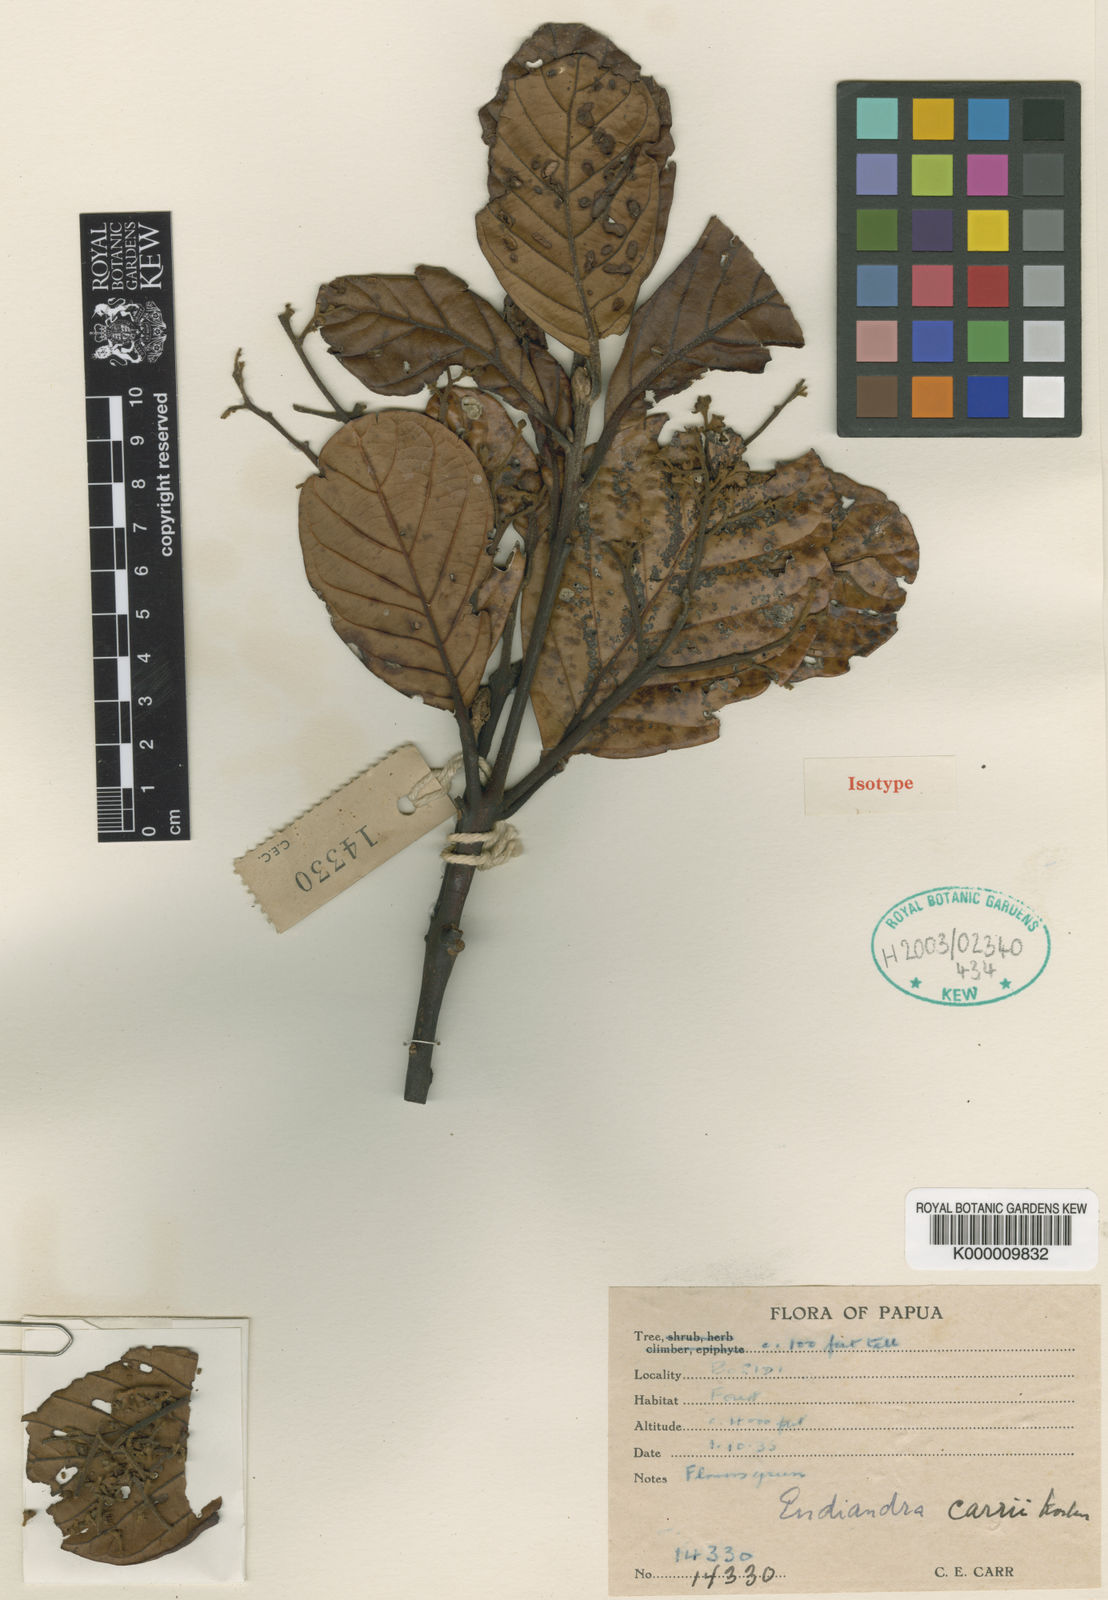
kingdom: Plantae
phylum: Tracheophyta
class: Magnoliopsida
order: Laurales
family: Lauraceae
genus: Endiandra
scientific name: Endiandra carrii
